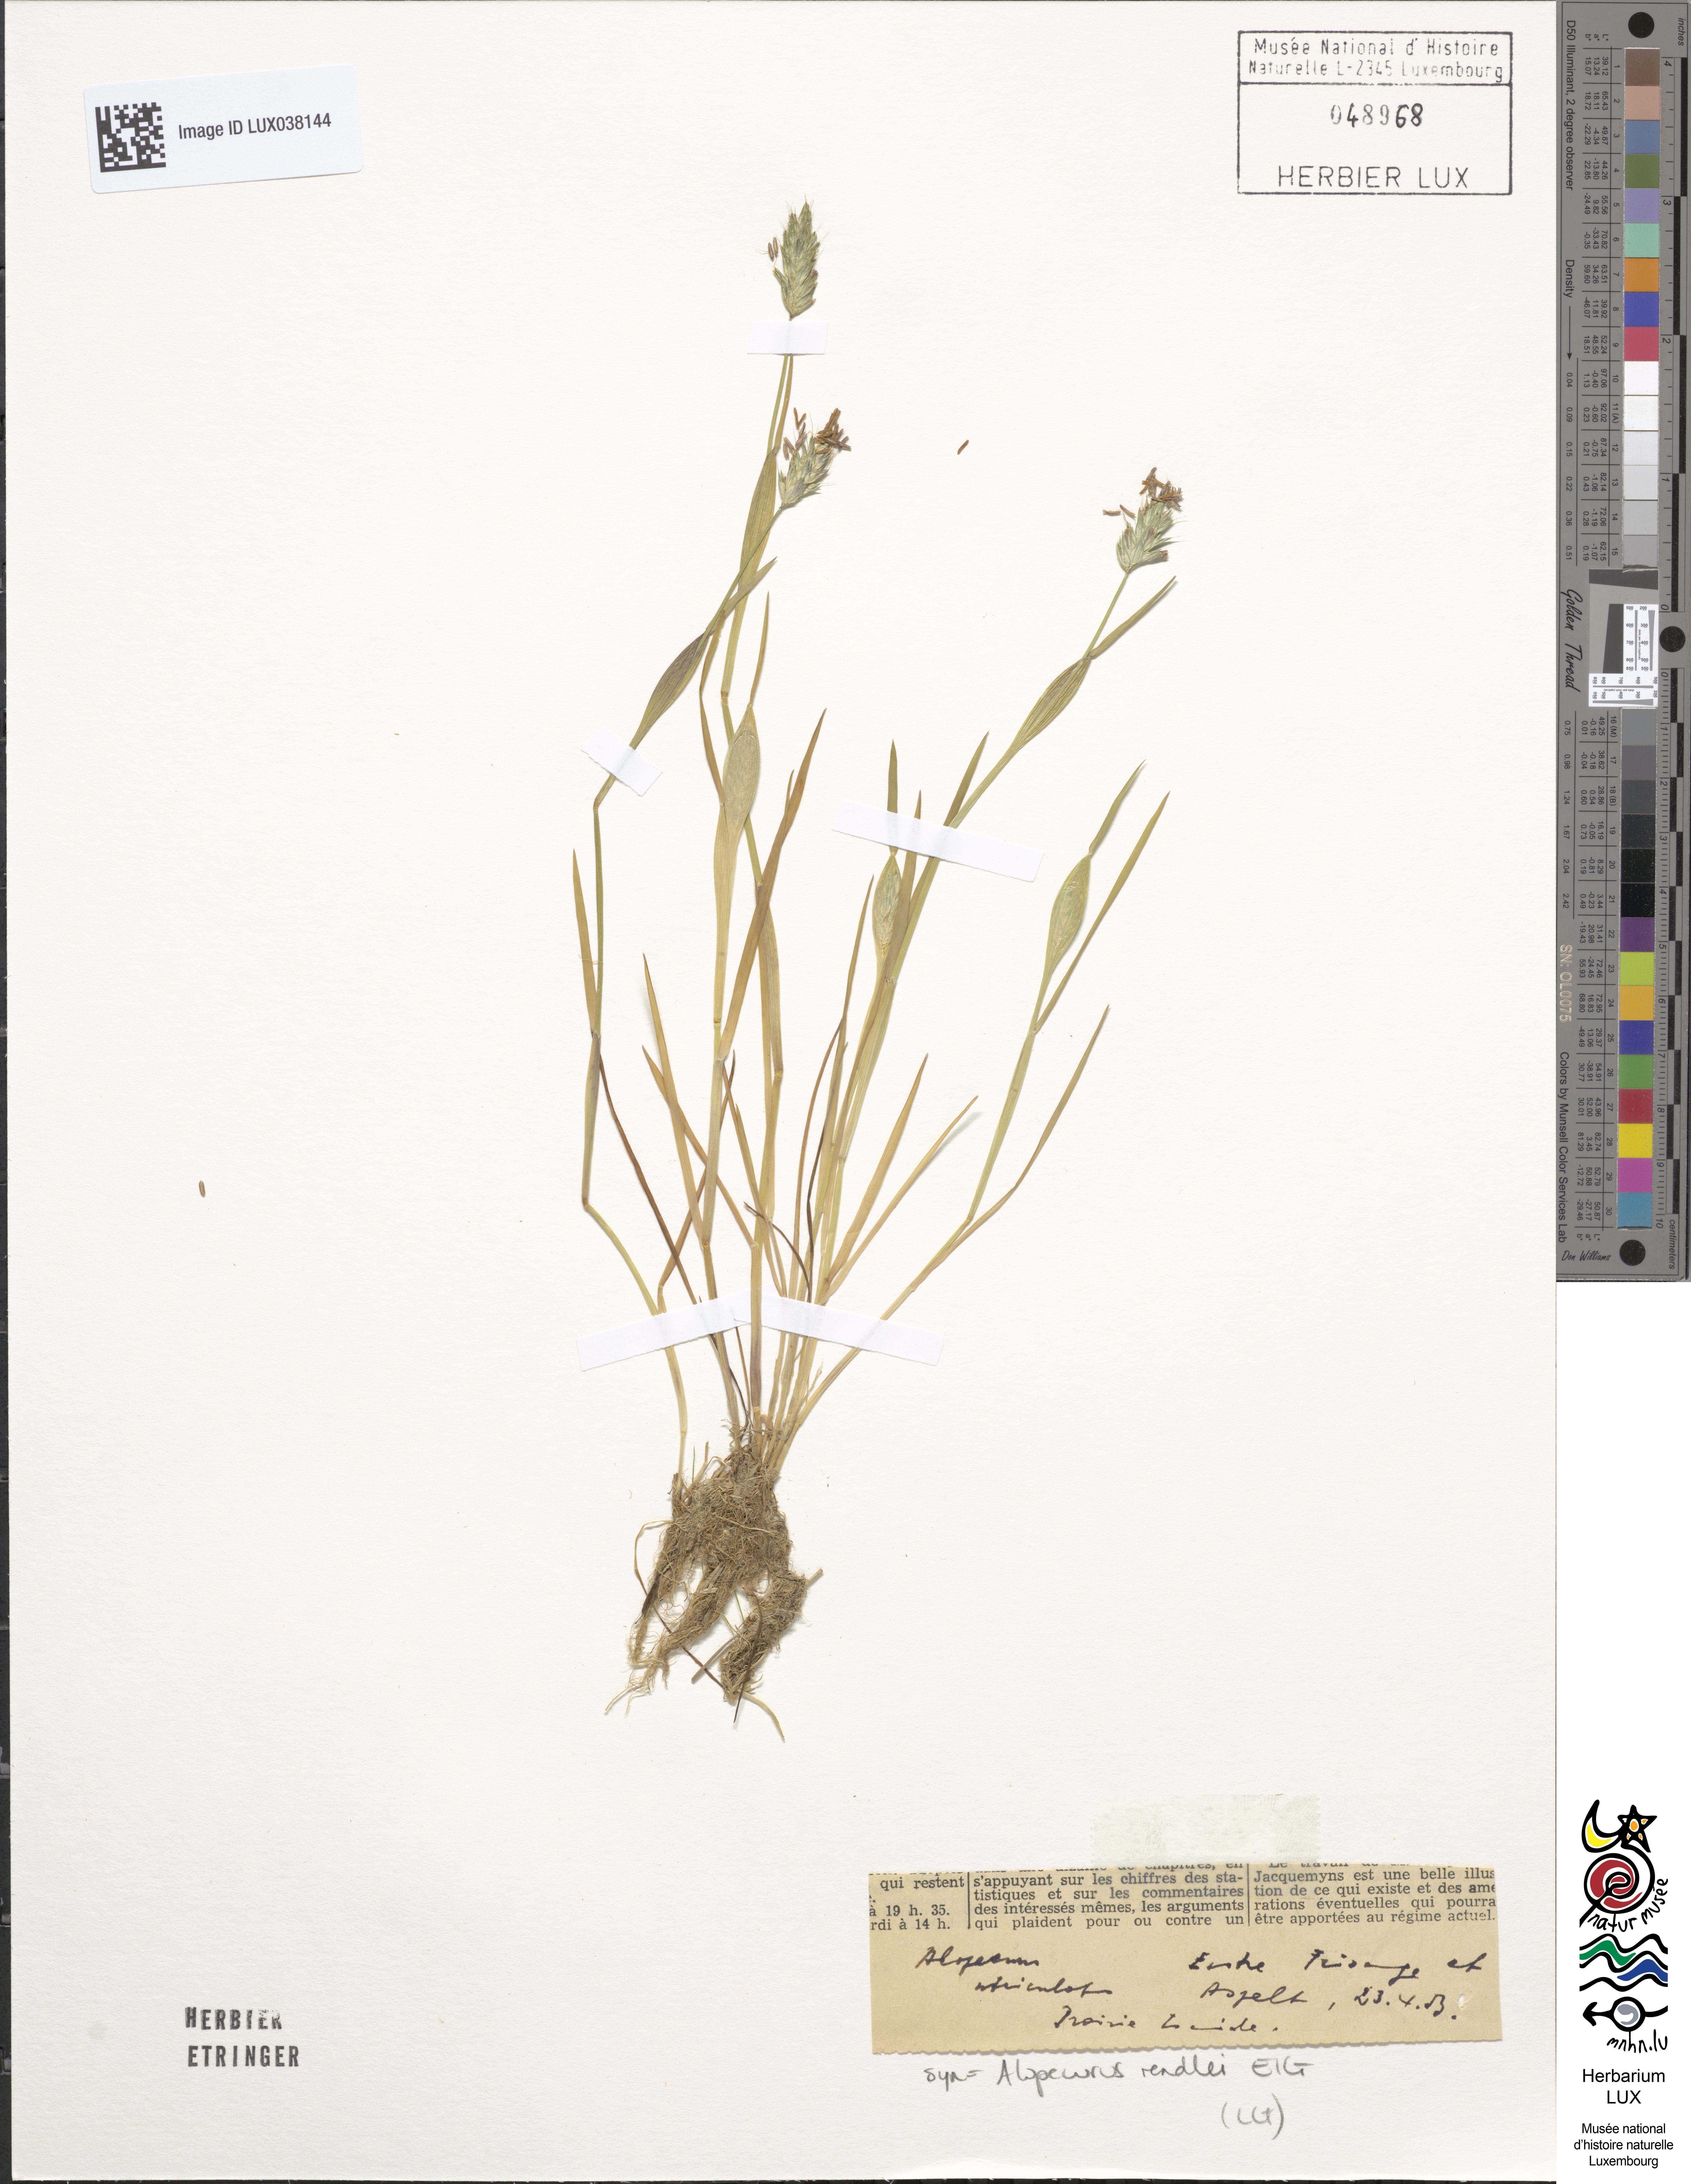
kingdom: Plantae
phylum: Tracheophyta
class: Liliopsida
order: Poales
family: Poaceae
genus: Alopecurus
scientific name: Alopecurus rendlei
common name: Rendle's meadow foxtail
